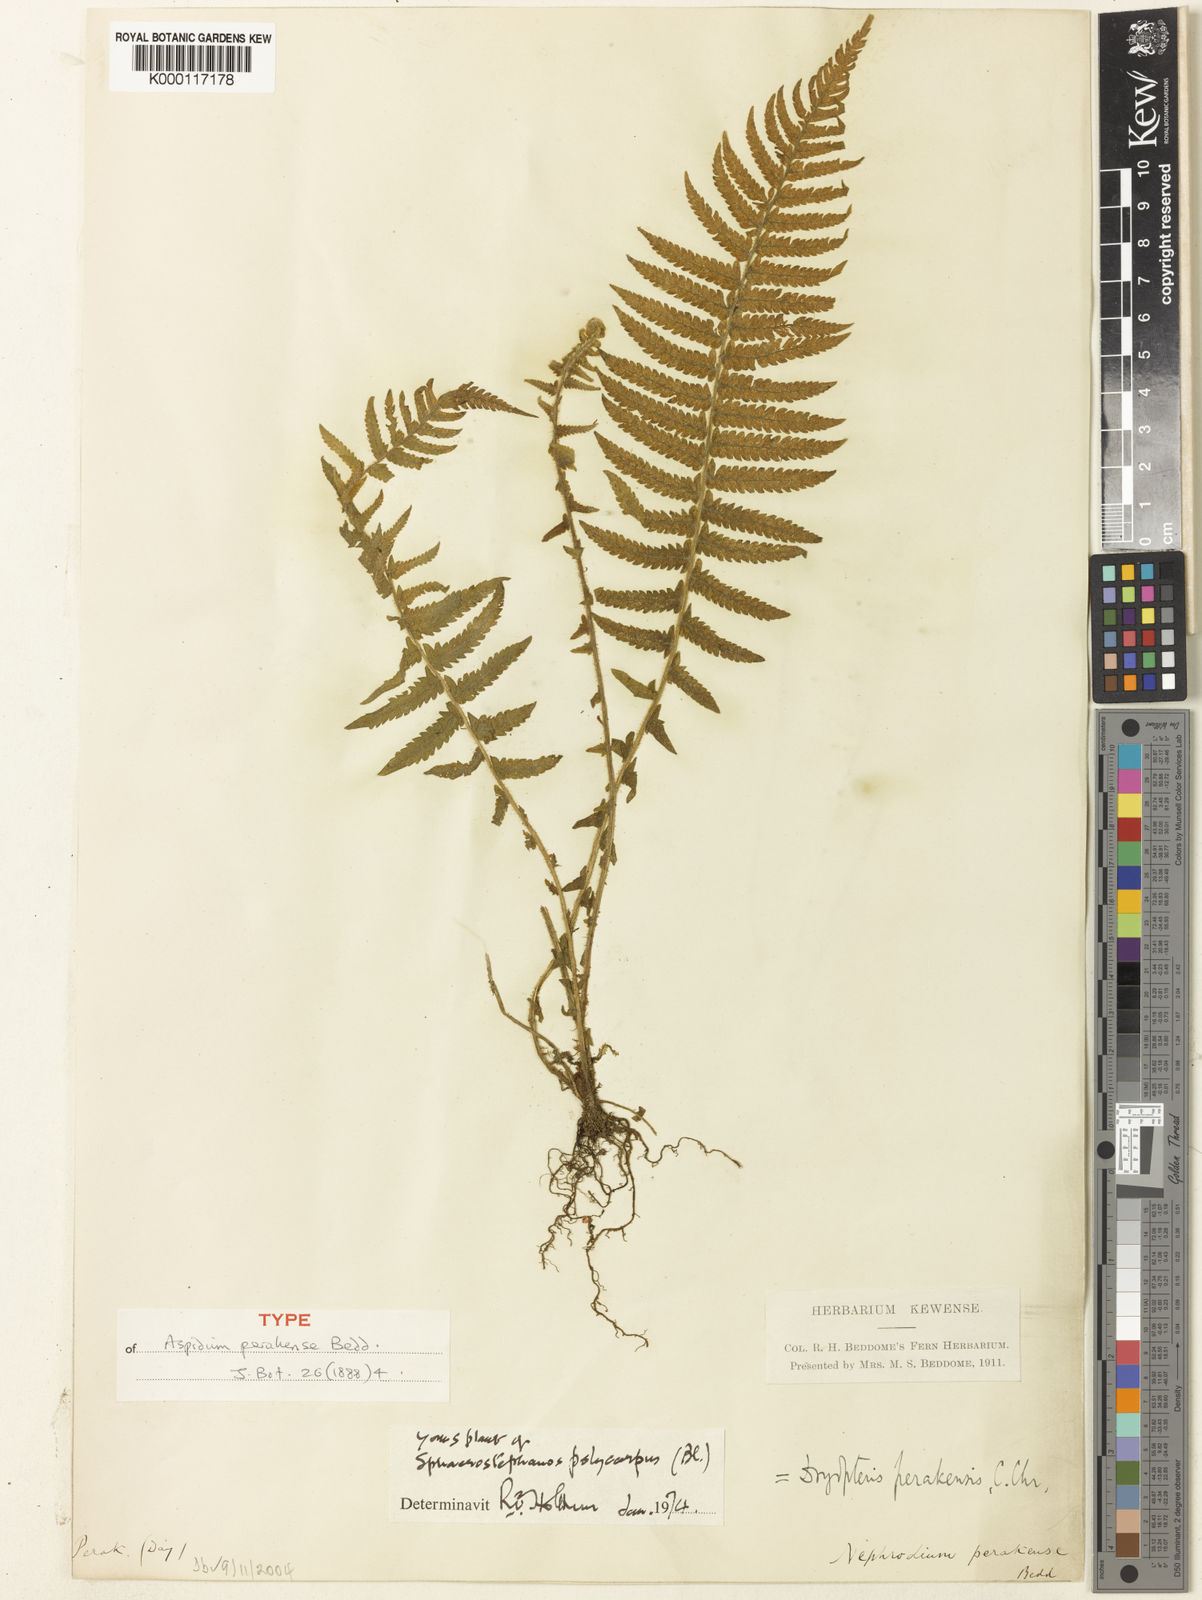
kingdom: Plantae
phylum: Tracheophyta
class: Polypodiopsida
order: Polypodiales
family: Thelypteridaceae
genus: Sphaerostephanos
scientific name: Sphaerostephanos polycarpos
